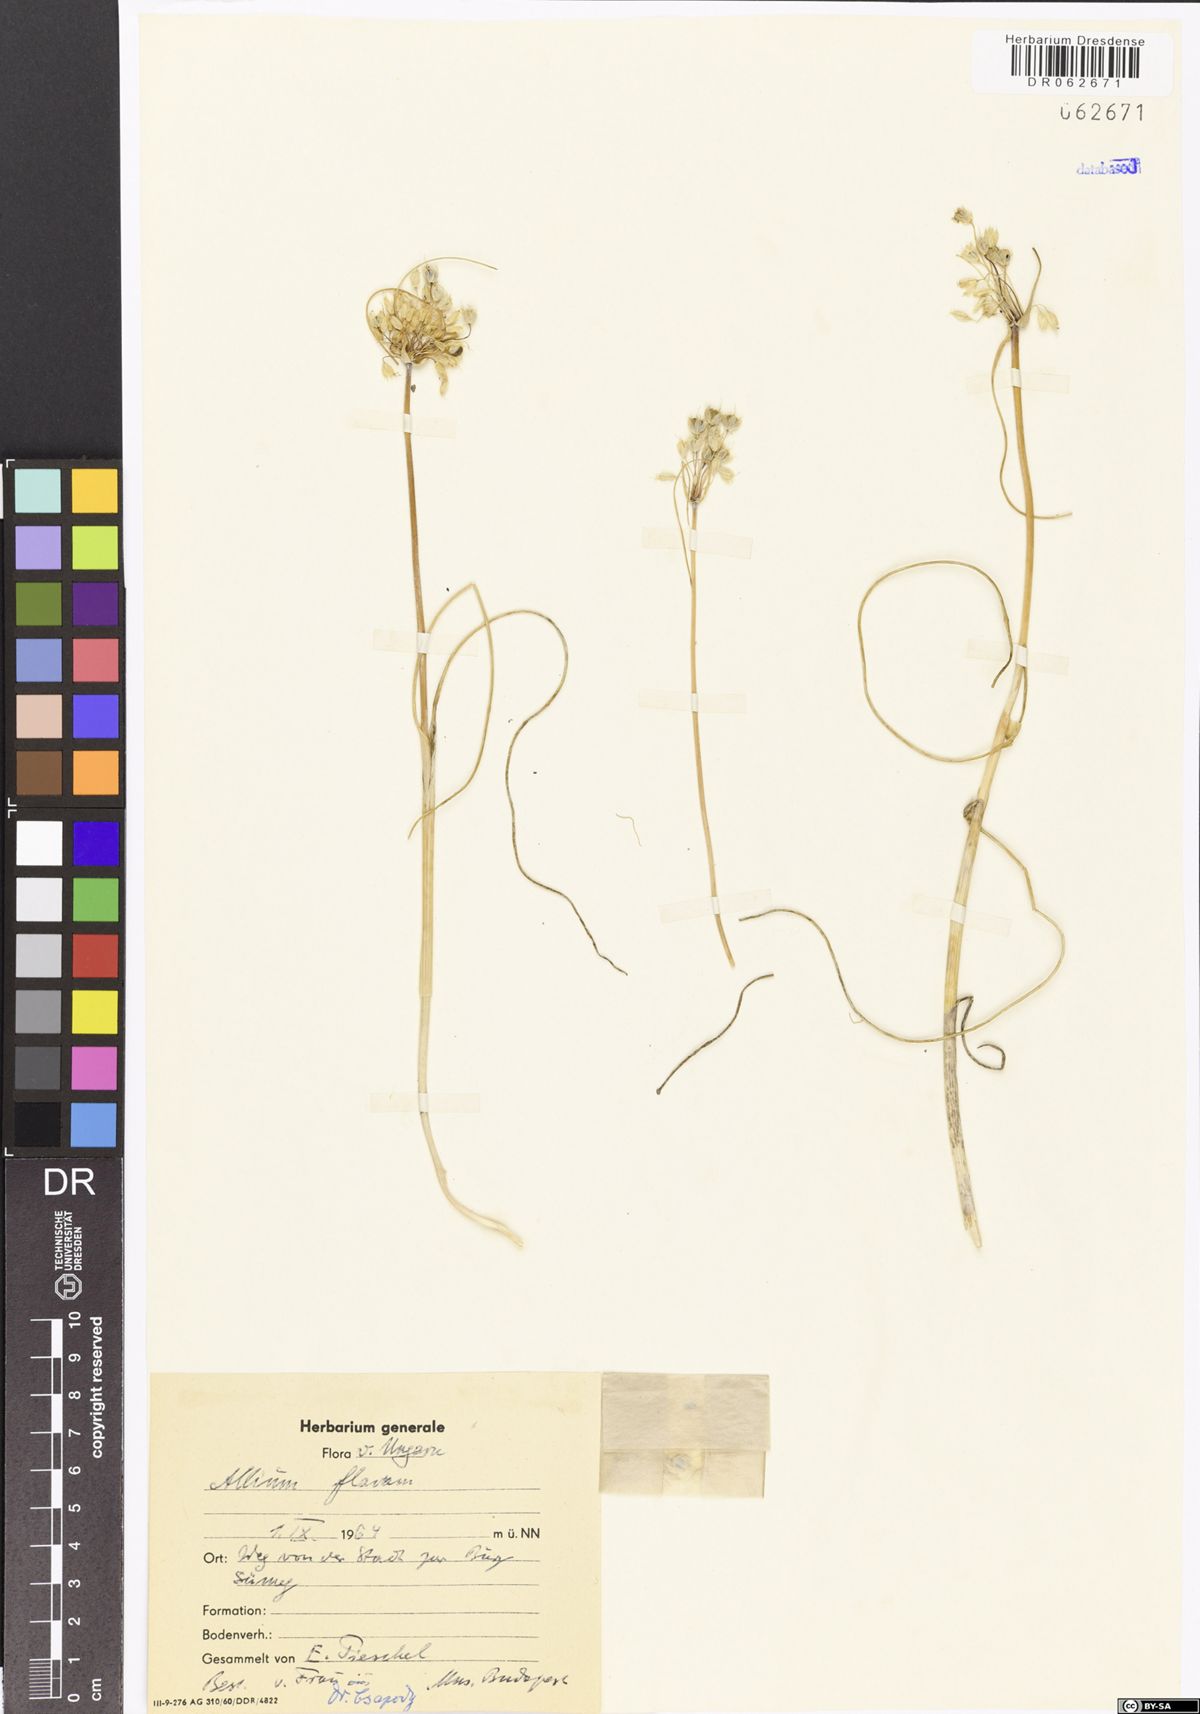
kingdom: Plantae
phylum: Tracheophyta
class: Liliopsida
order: Asparagales
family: Amaryllidaceae
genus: Allium
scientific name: Allium flavum
